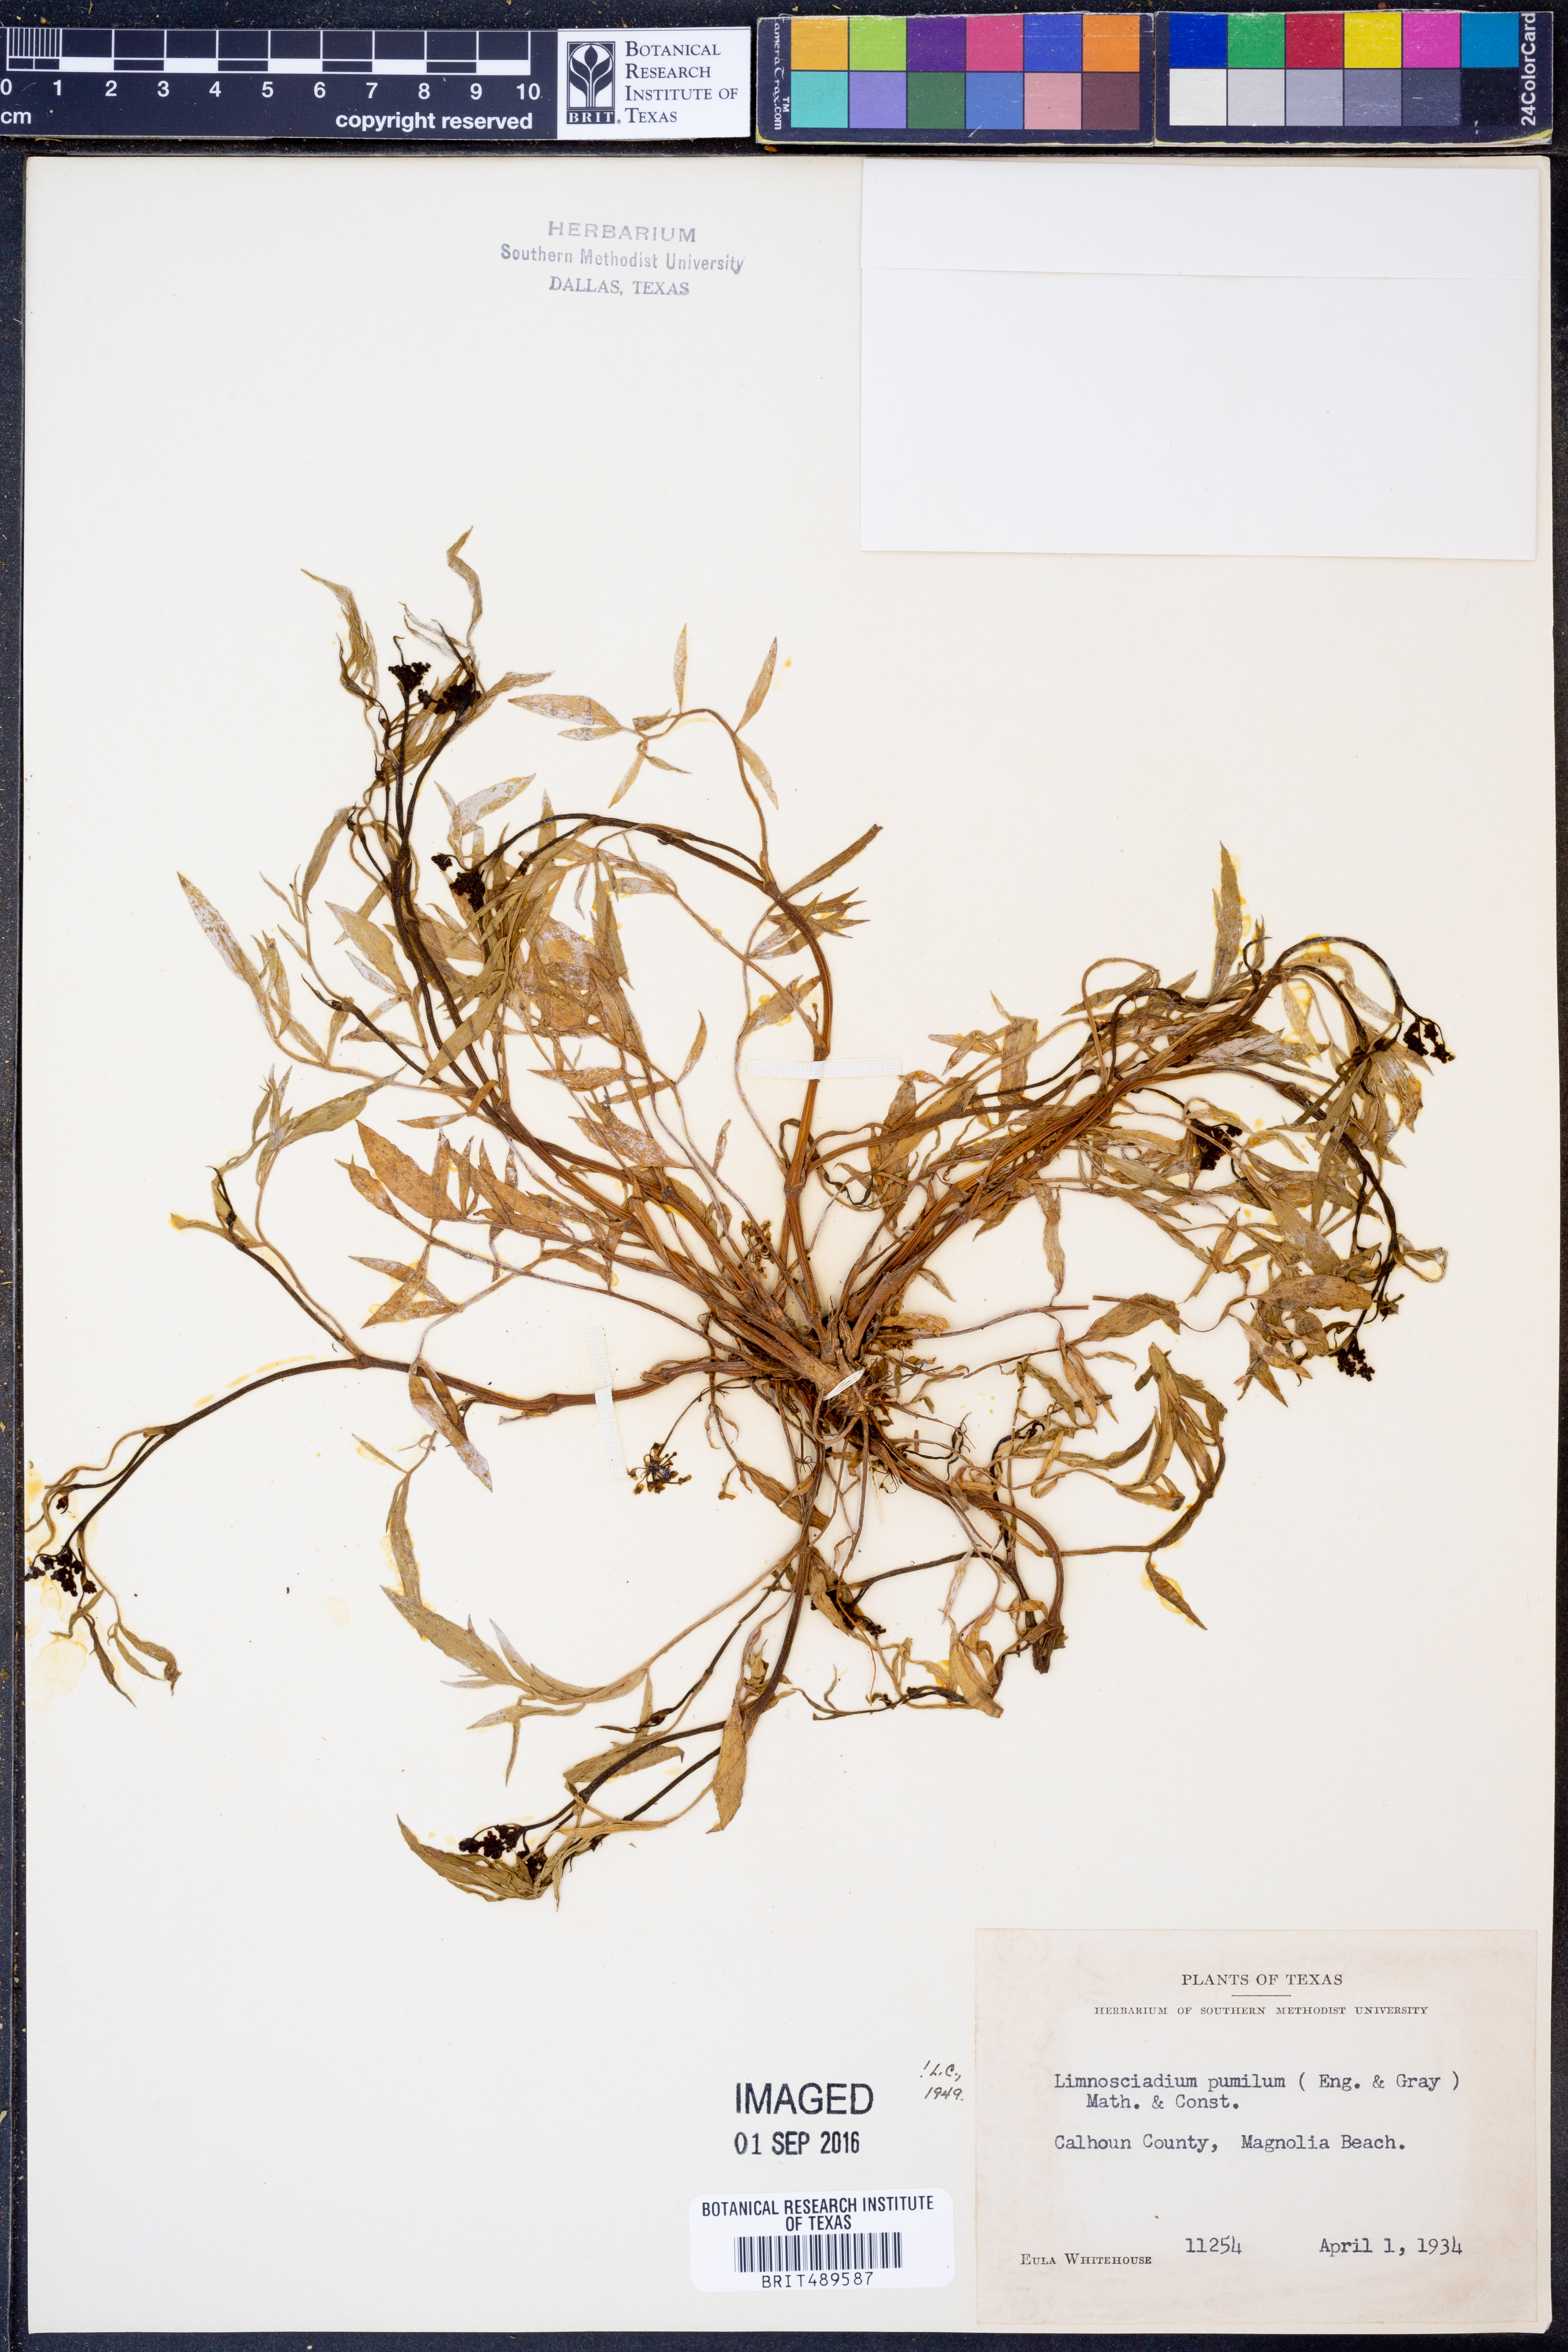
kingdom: Plantae
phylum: Tracheophyta
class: Magnoliopsida
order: Apiales
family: Apiaceae
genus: Limnosciadium
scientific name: Limnosciadium pinnatum
